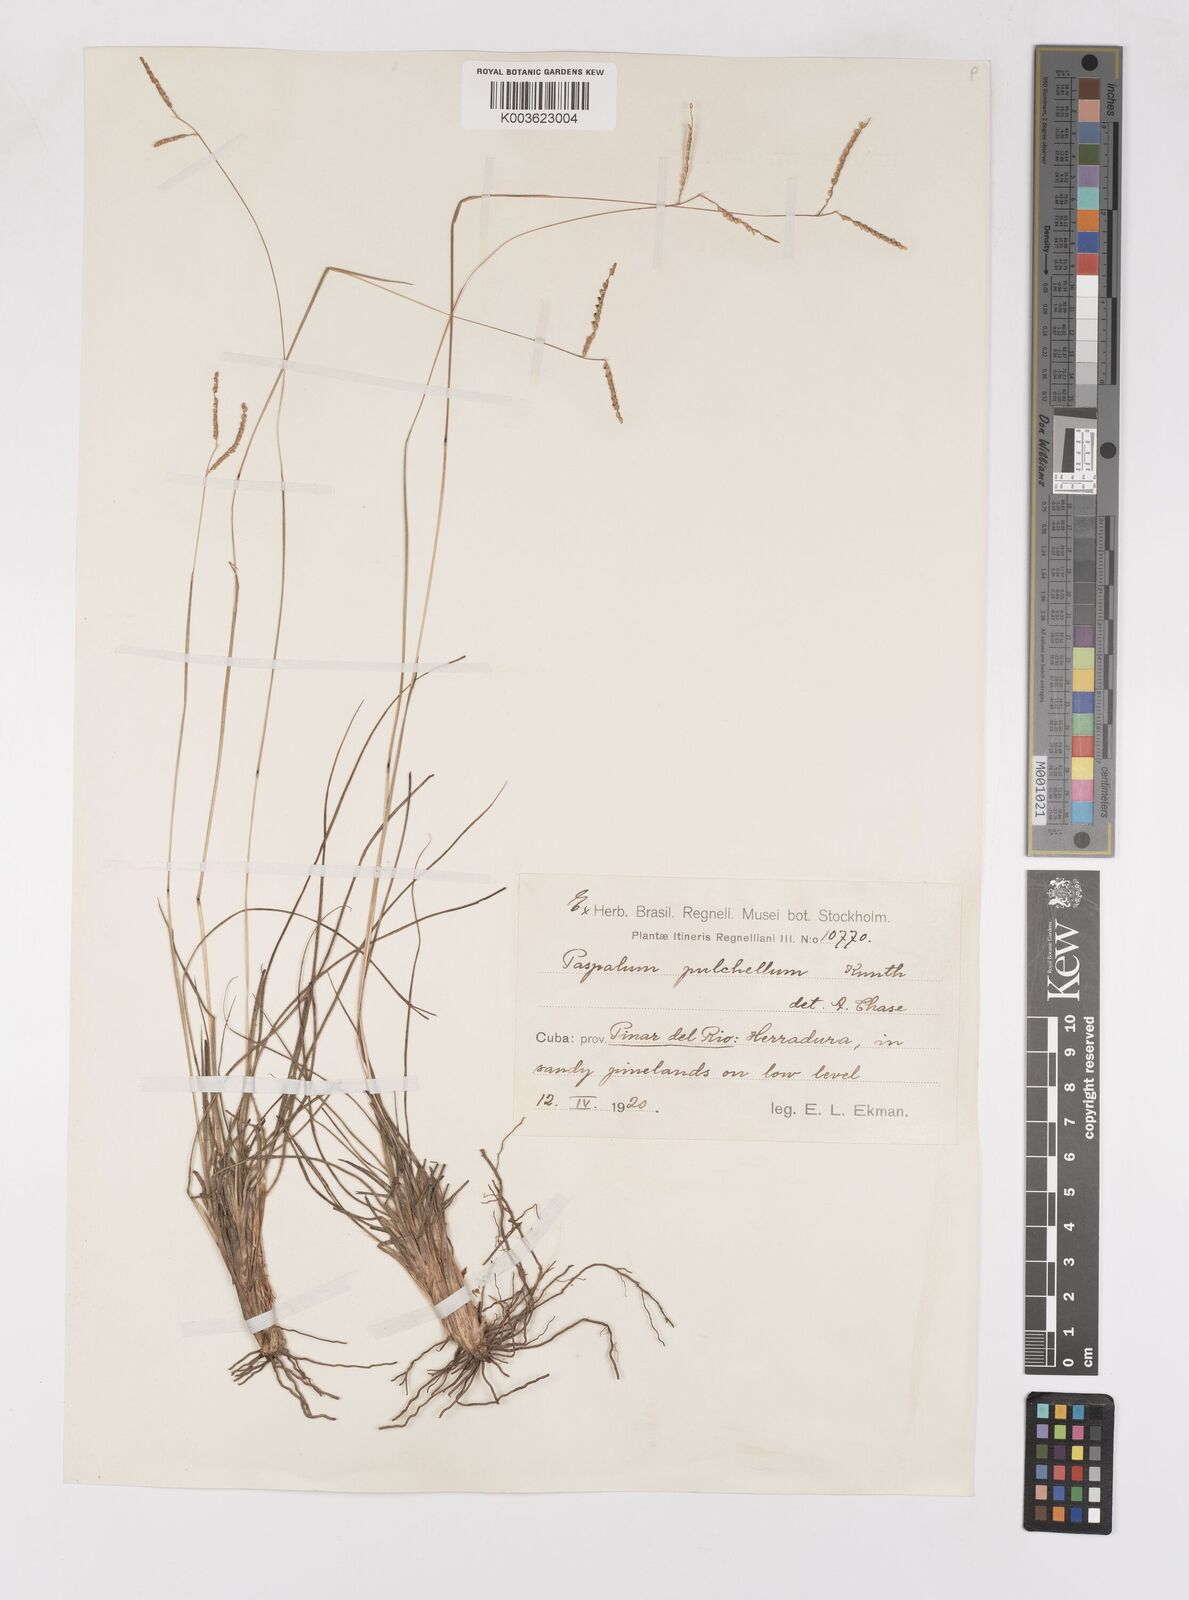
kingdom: Plantae
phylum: Tracheophyta
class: Liliopsida
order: Poales
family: Poaceae
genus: Paspalum
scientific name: Paspalum pulchellum
